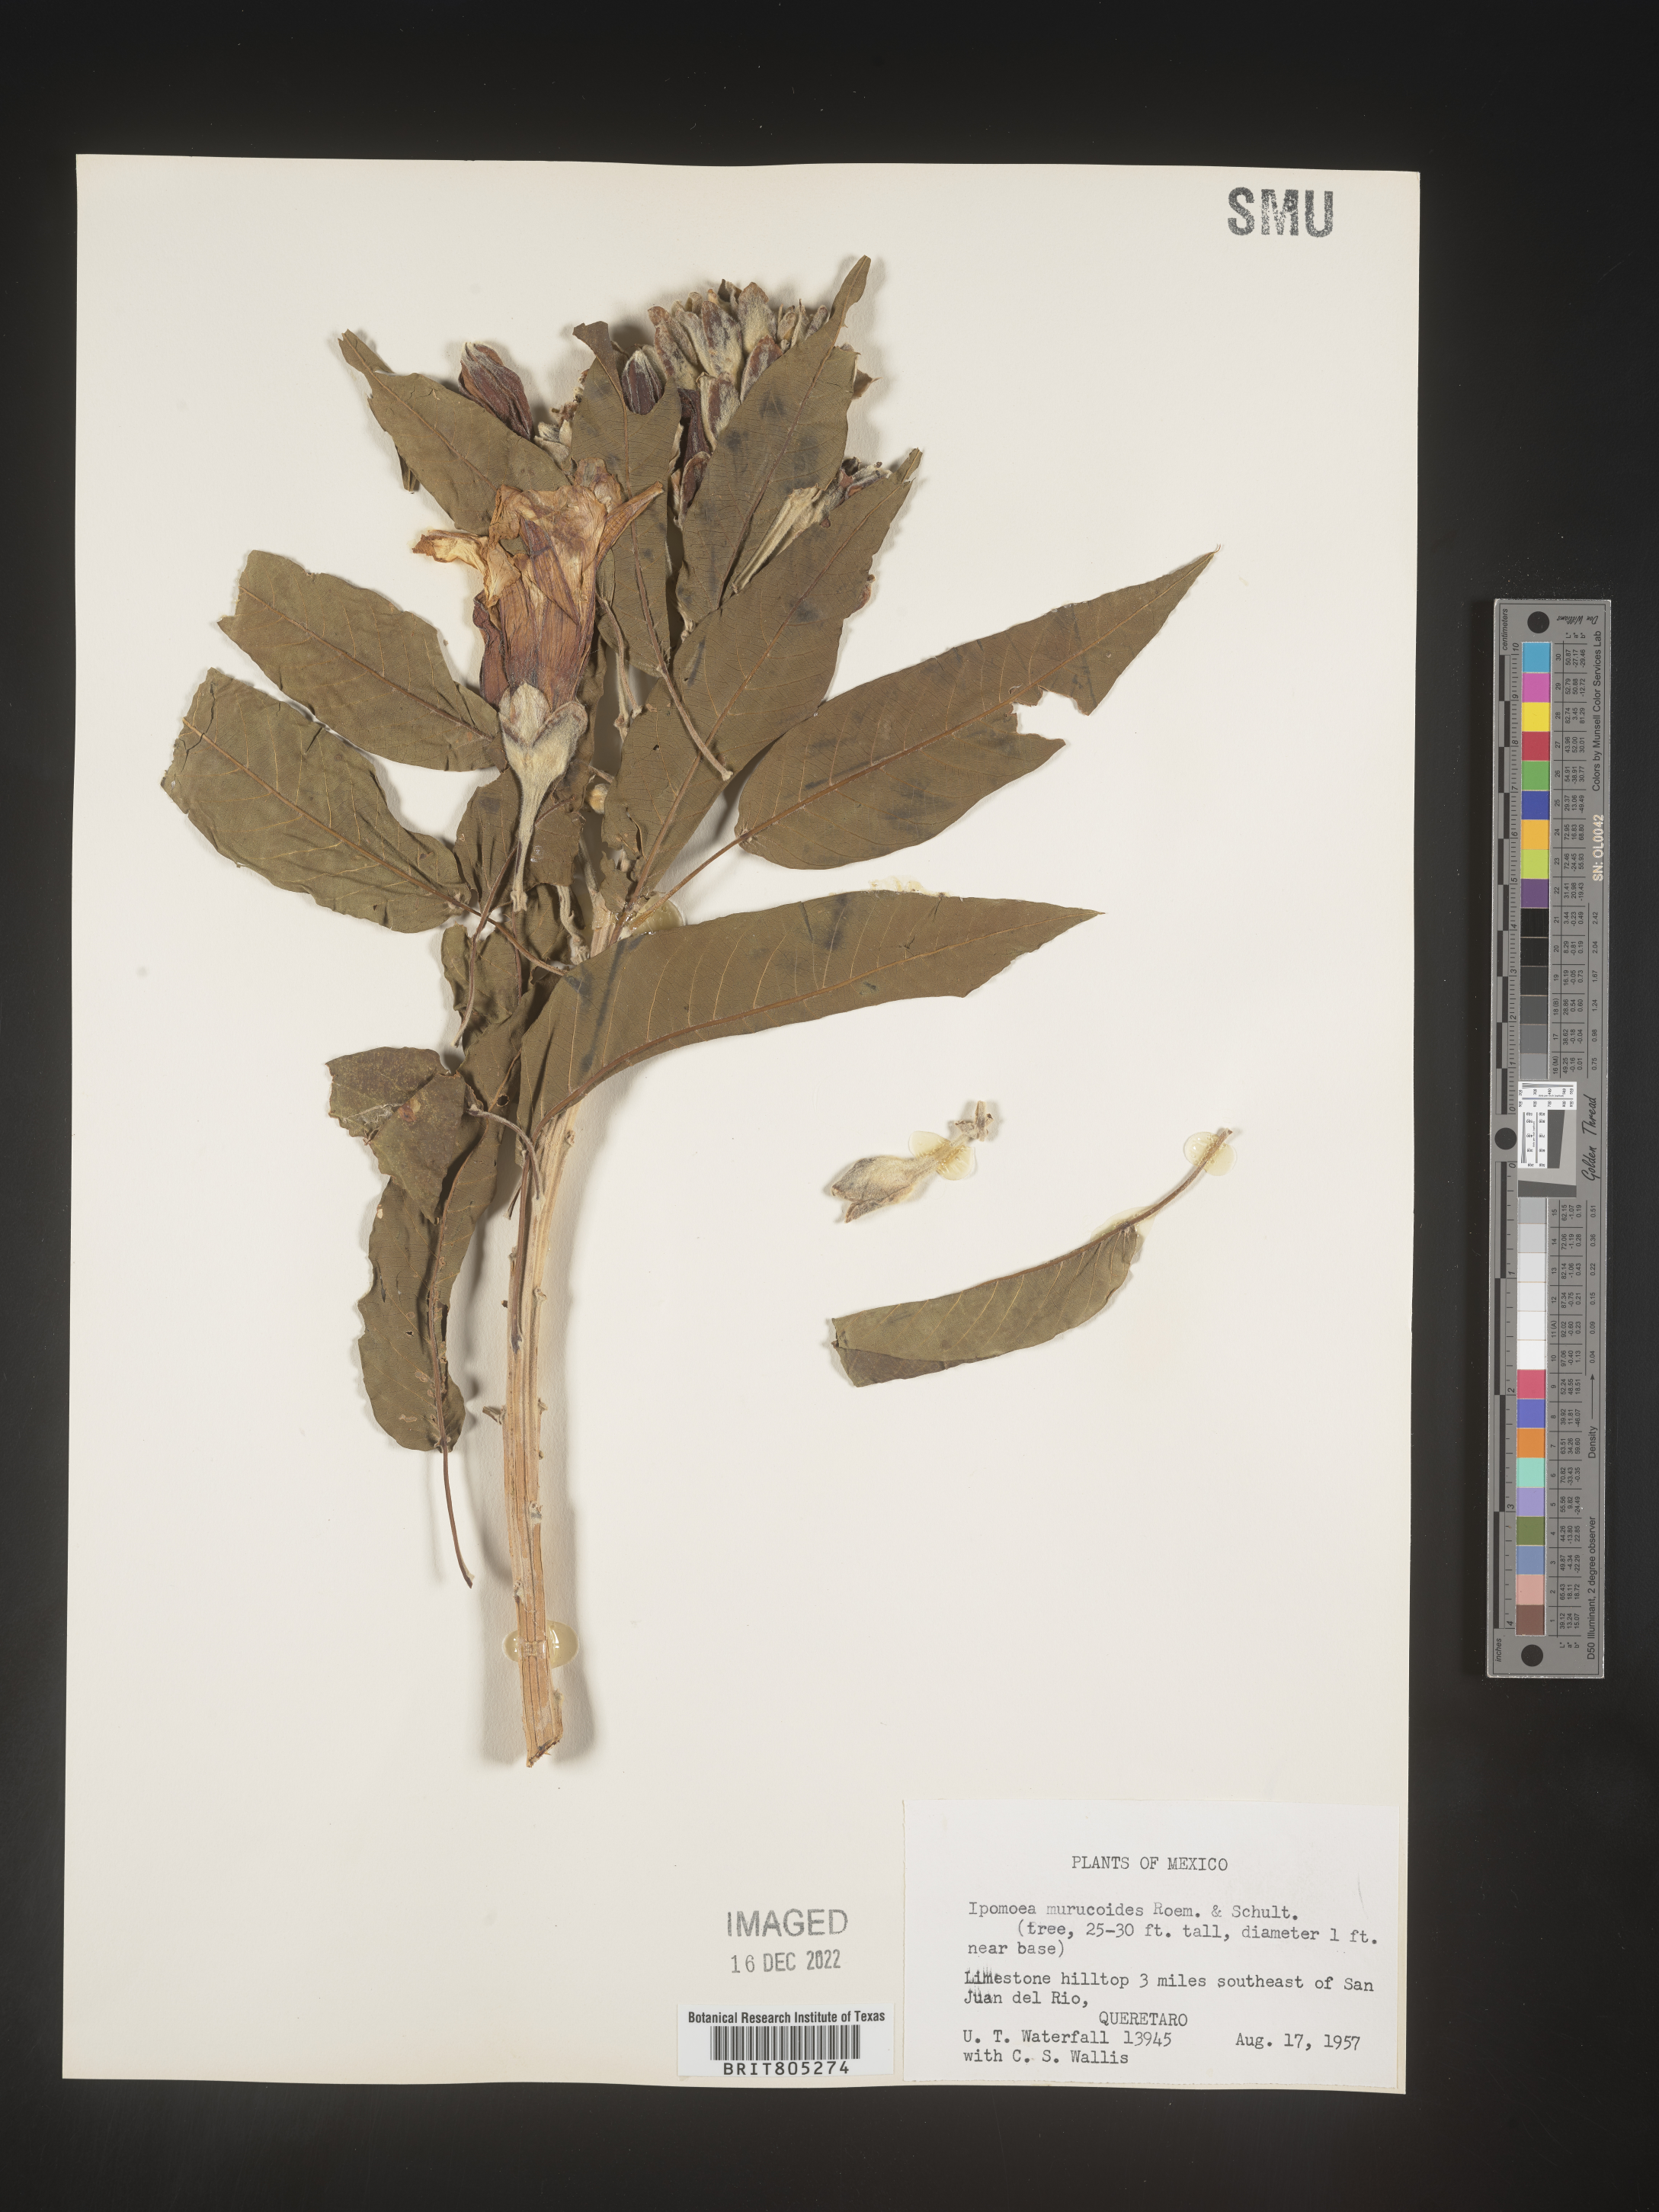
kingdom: Plantae
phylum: Tracheophyta
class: Magnoliopsida
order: Solanales
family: Convolvulaceae
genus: Ipomoea
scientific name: Ipomoea
